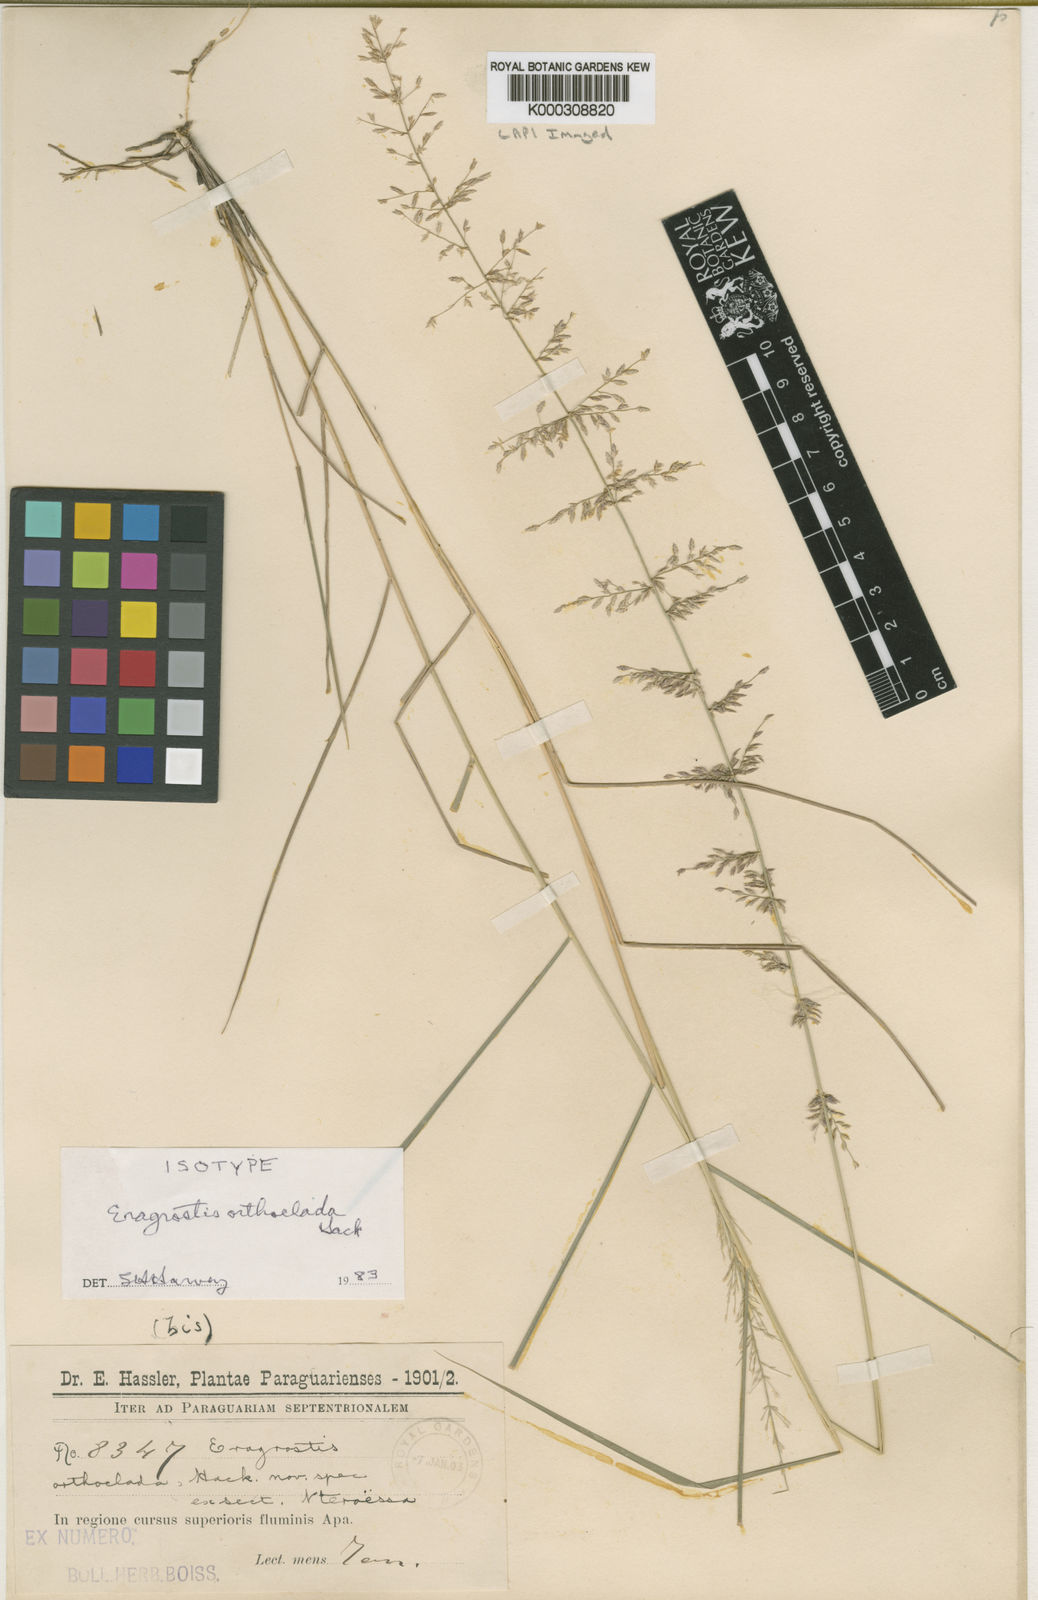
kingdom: Plantae
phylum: Tracheophyta
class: Liliopsida
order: Poales
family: Poaceae
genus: Eragrostis
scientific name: Eragrostis orthoclada
